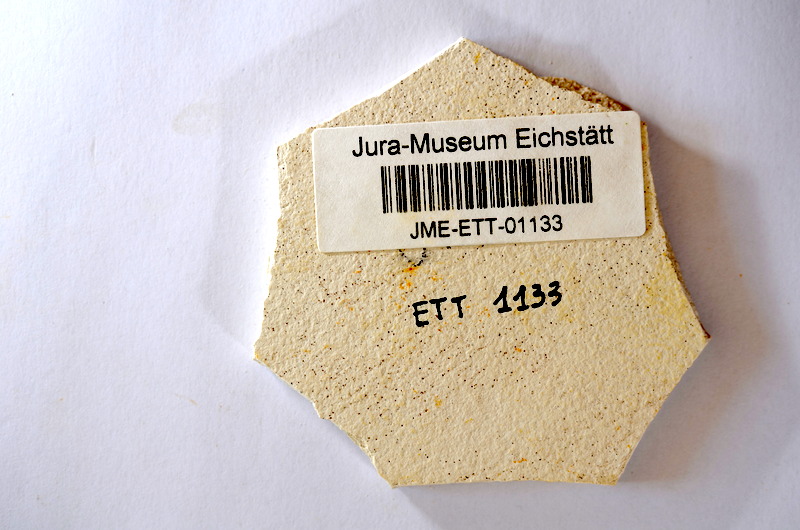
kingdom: Animalia
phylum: Chordata
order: Salmoniformes
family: Orthogonikleithridae
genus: Orthogonikleithrus
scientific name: Orthogonikleithrus hoelli
